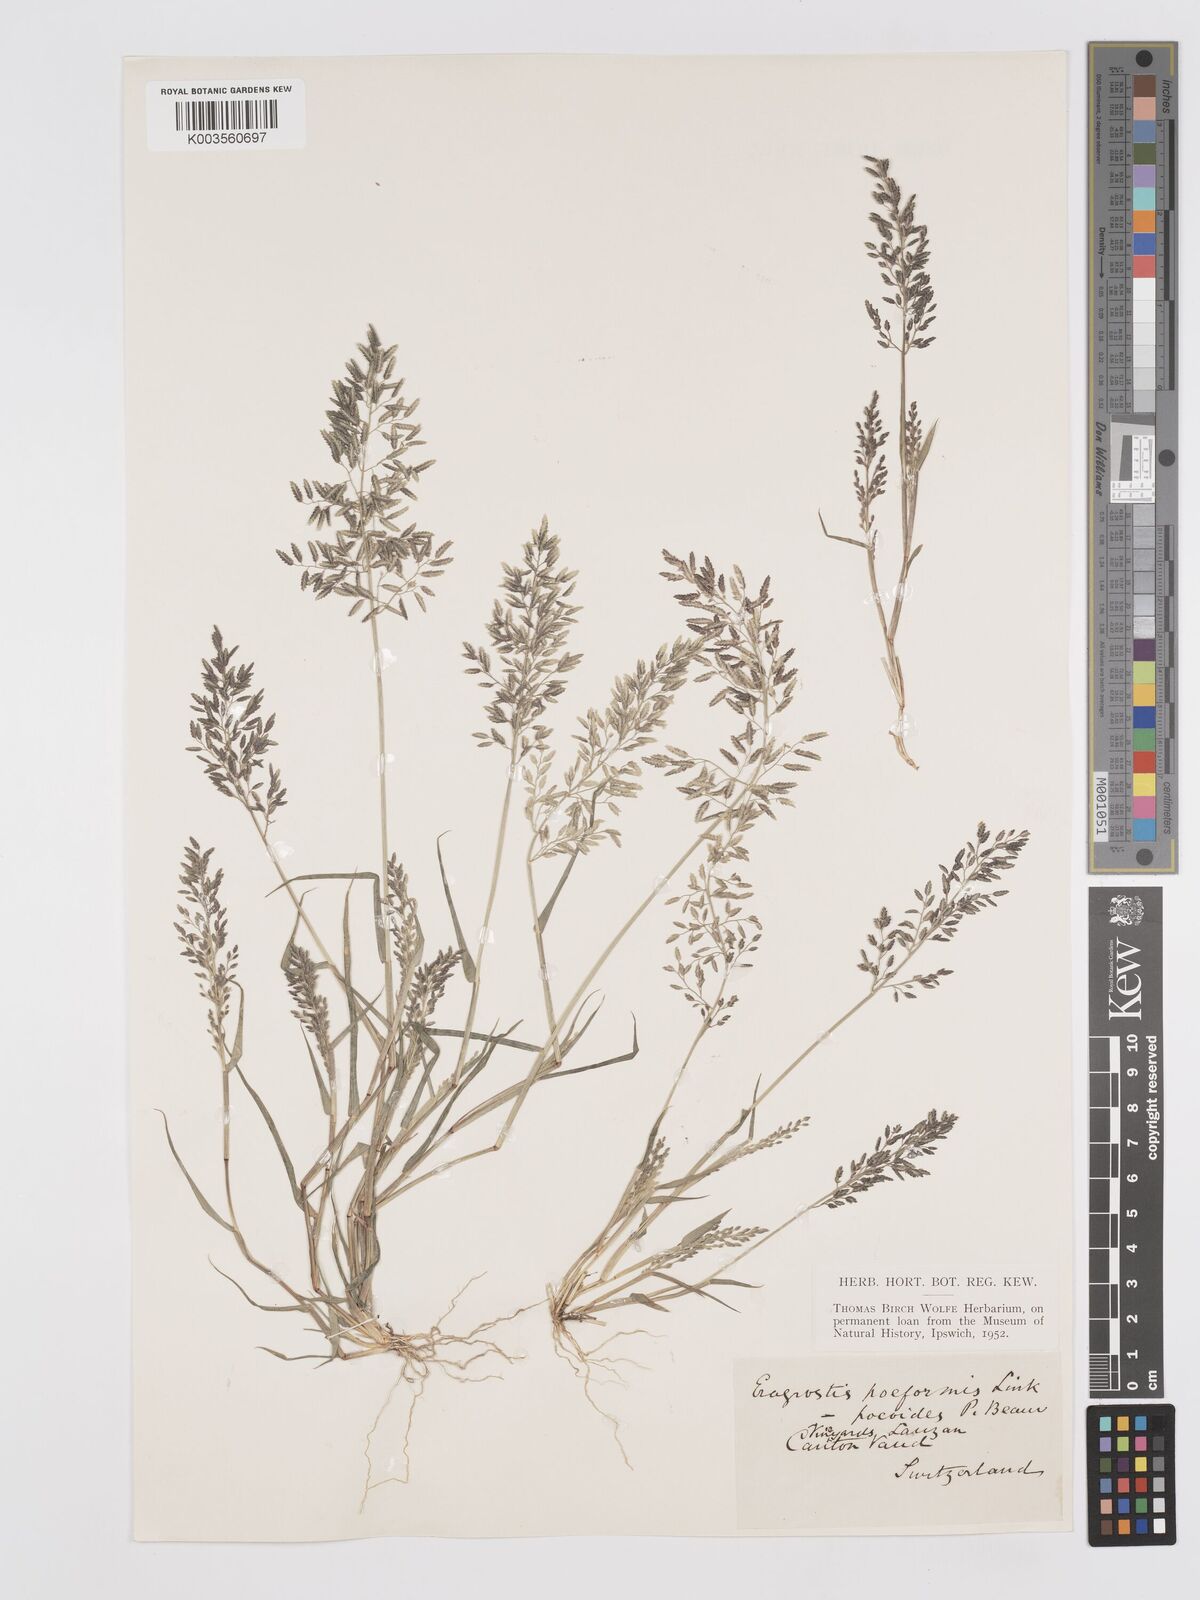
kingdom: Plantae
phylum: Tracheophyta
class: Liliopsida
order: Poales
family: Poaceae
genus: Eragrostis
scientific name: Eragrostis minor
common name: Small love-grass
